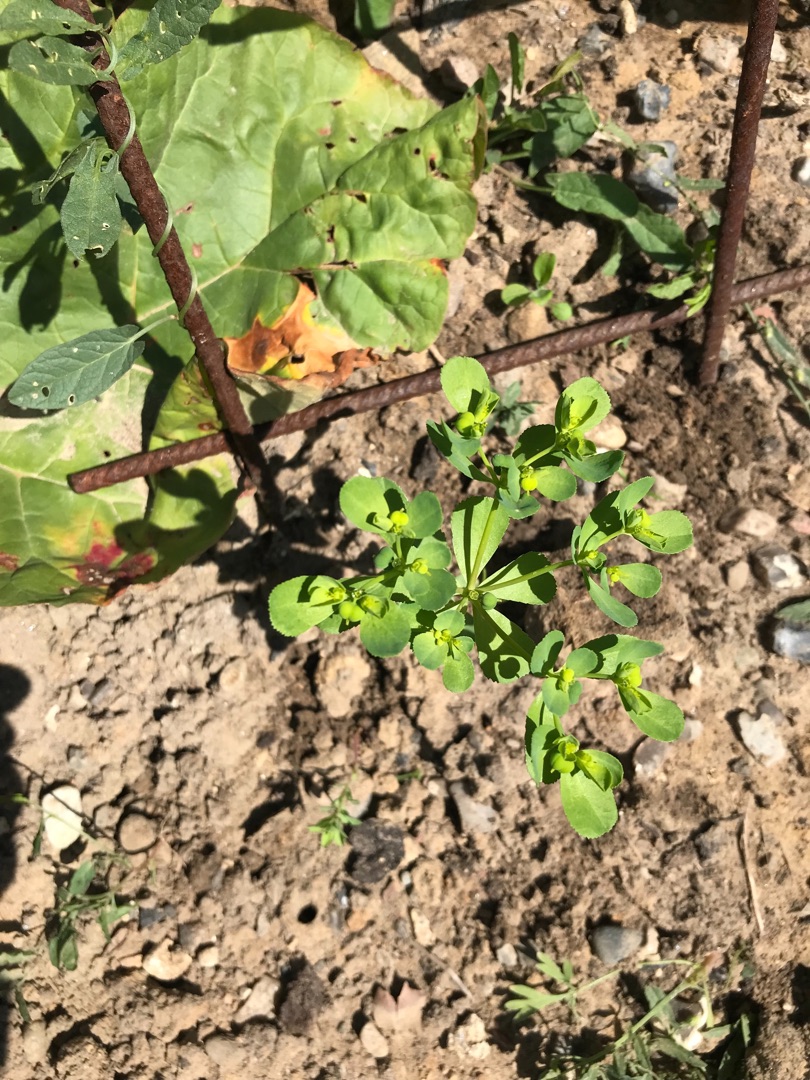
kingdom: Plantae
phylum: Tracheophyta
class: Magnoliopsida
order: Malpighiales
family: Euphorbiaceae
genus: Euphorbia
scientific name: Euphorbia helioscopia
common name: Skærm-vortemælk
